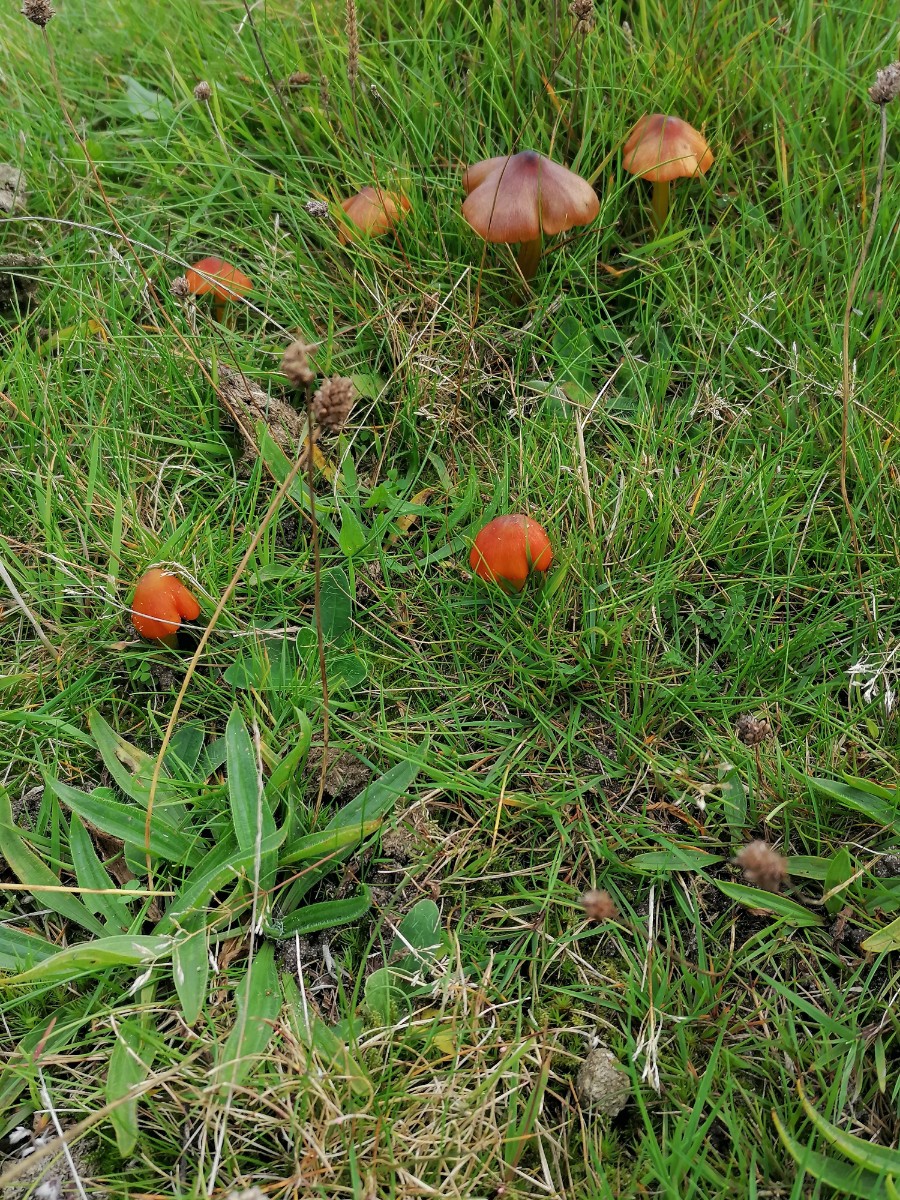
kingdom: Fungi
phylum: Basidiomycota
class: Agaricomycetes
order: Agaricales
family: Hygrophoraceae
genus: Hygrocybe
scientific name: Hygrocybe conica
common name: kegle-vokshat
